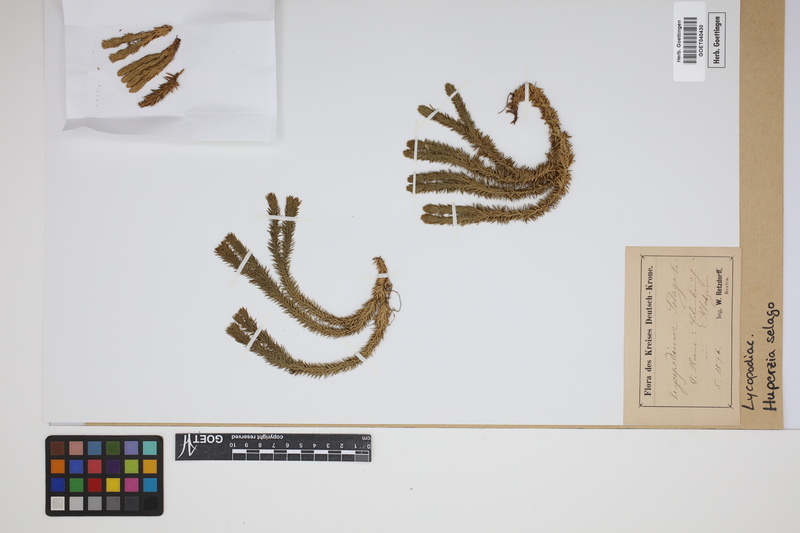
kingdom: Plantae
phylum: Tracheophyta
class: Lycopodiopsida
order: Lycopodiales
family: Lycopodiaceae
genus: Huperzia
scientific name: Huperzia selago
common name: Northern firmoss
